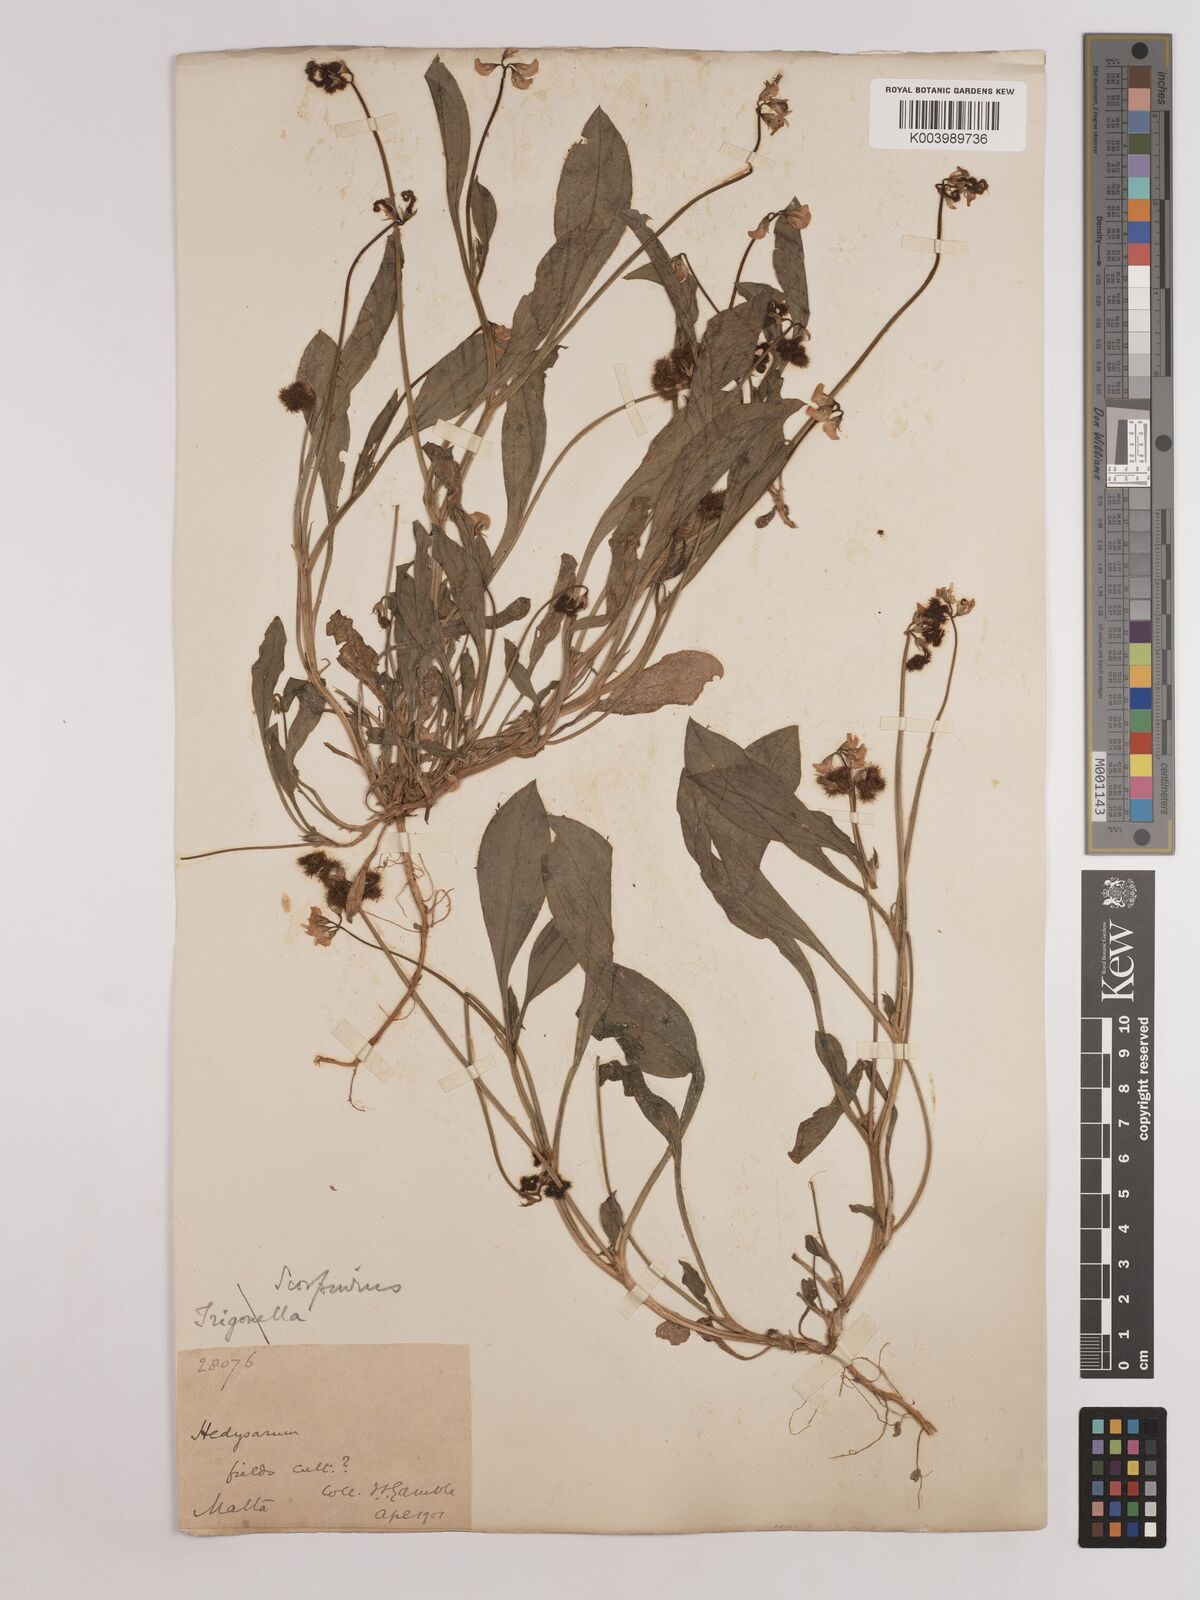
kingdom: Plantae
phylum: Tracheophyta
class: Magnoliopsida
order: Fabales
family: Fabaceae
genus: Scorpiurus
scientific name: Scorpiurus muricatus
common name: Caterpillar-plant
